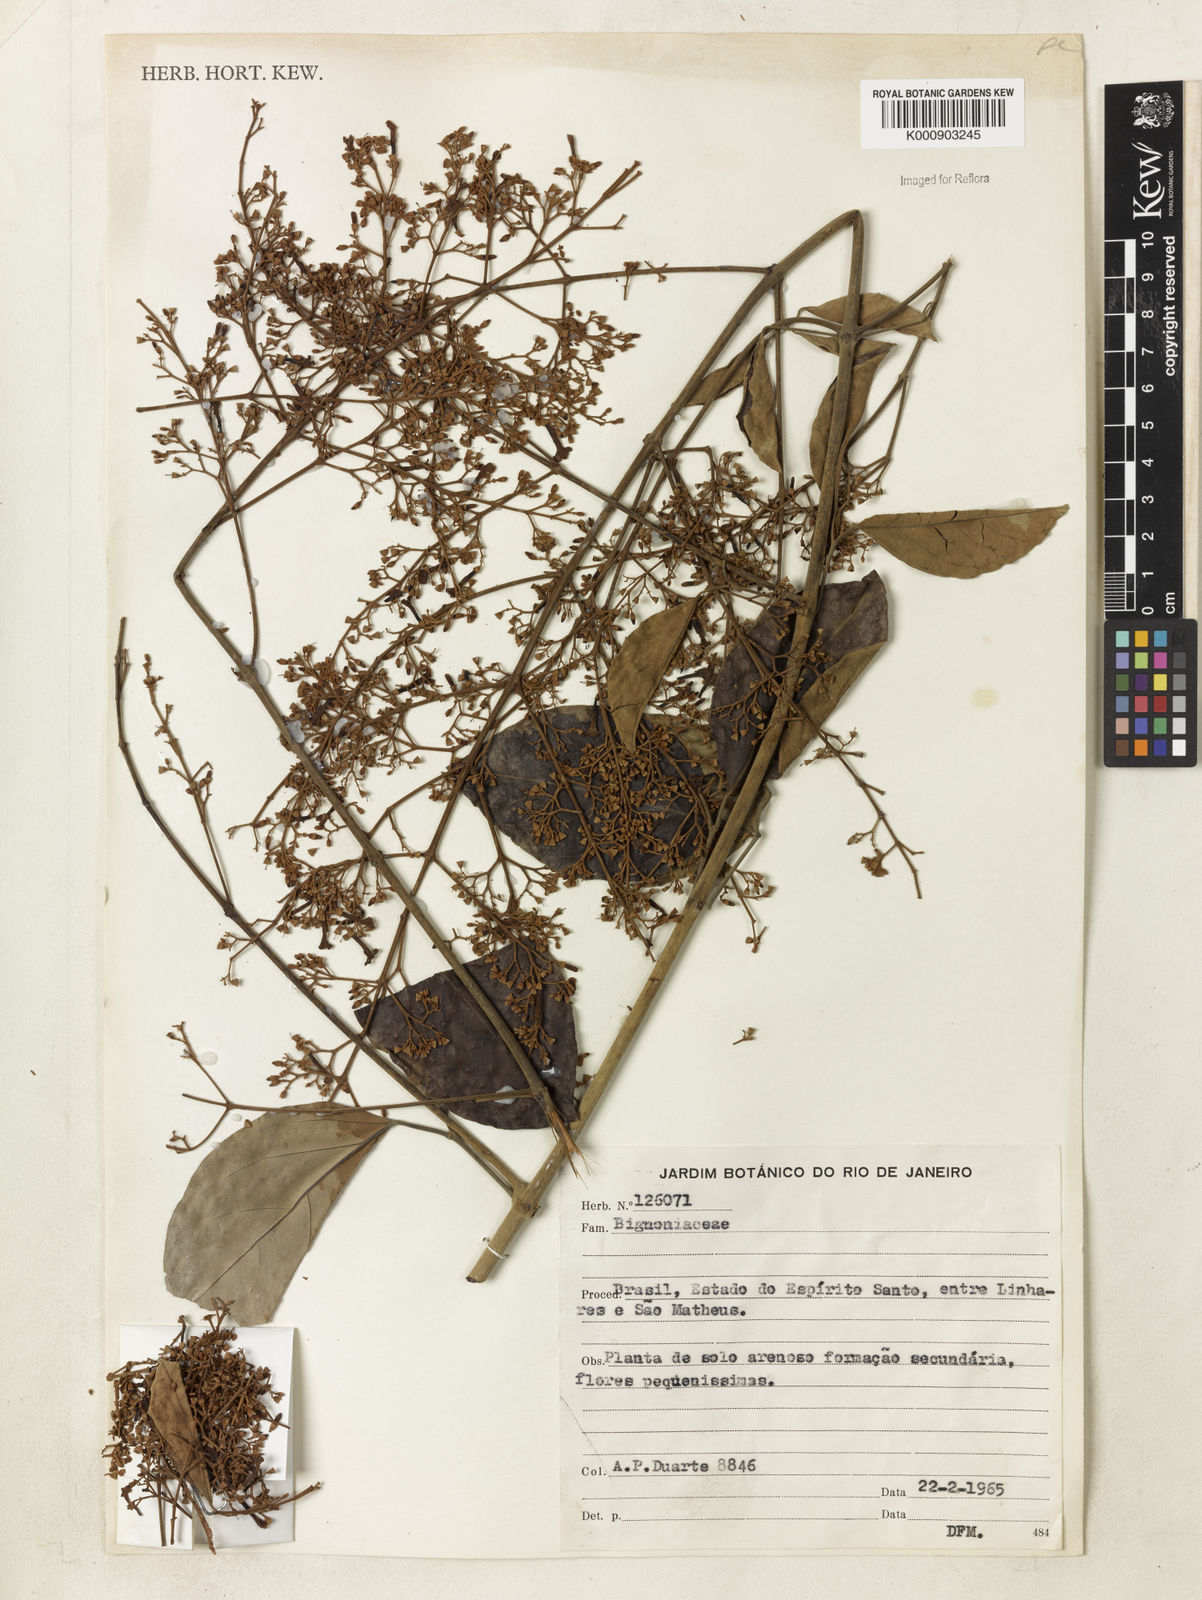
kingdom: Plantae
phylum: Tracheophyta
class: Magnoliopsida
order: Lamiales
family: Bignoniaceae
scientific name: Bignoniaceae
